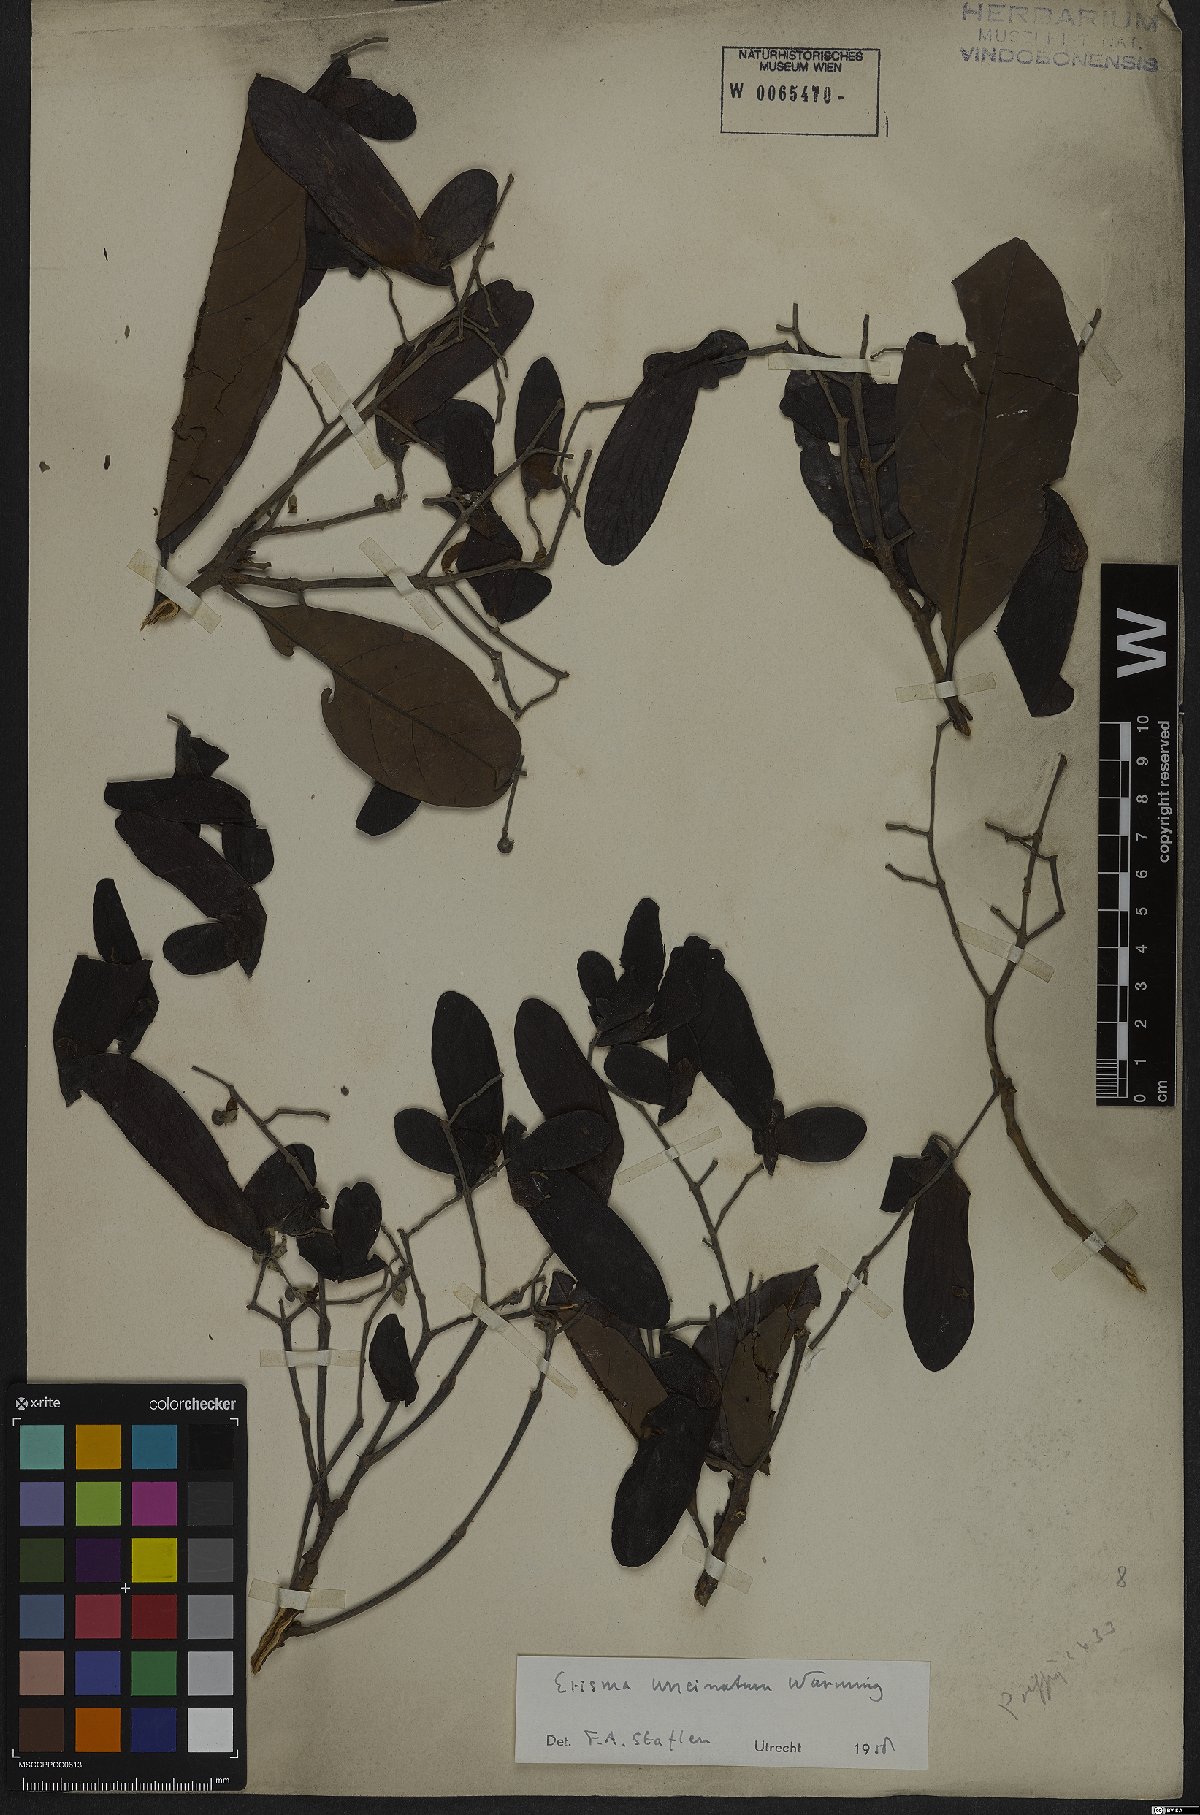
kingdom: Plantae
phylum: Tracheophyta
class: Magnoliopsida
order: Myrtales
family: Vochysiaceae
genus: Erisma
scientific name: Erisma uncinatum
